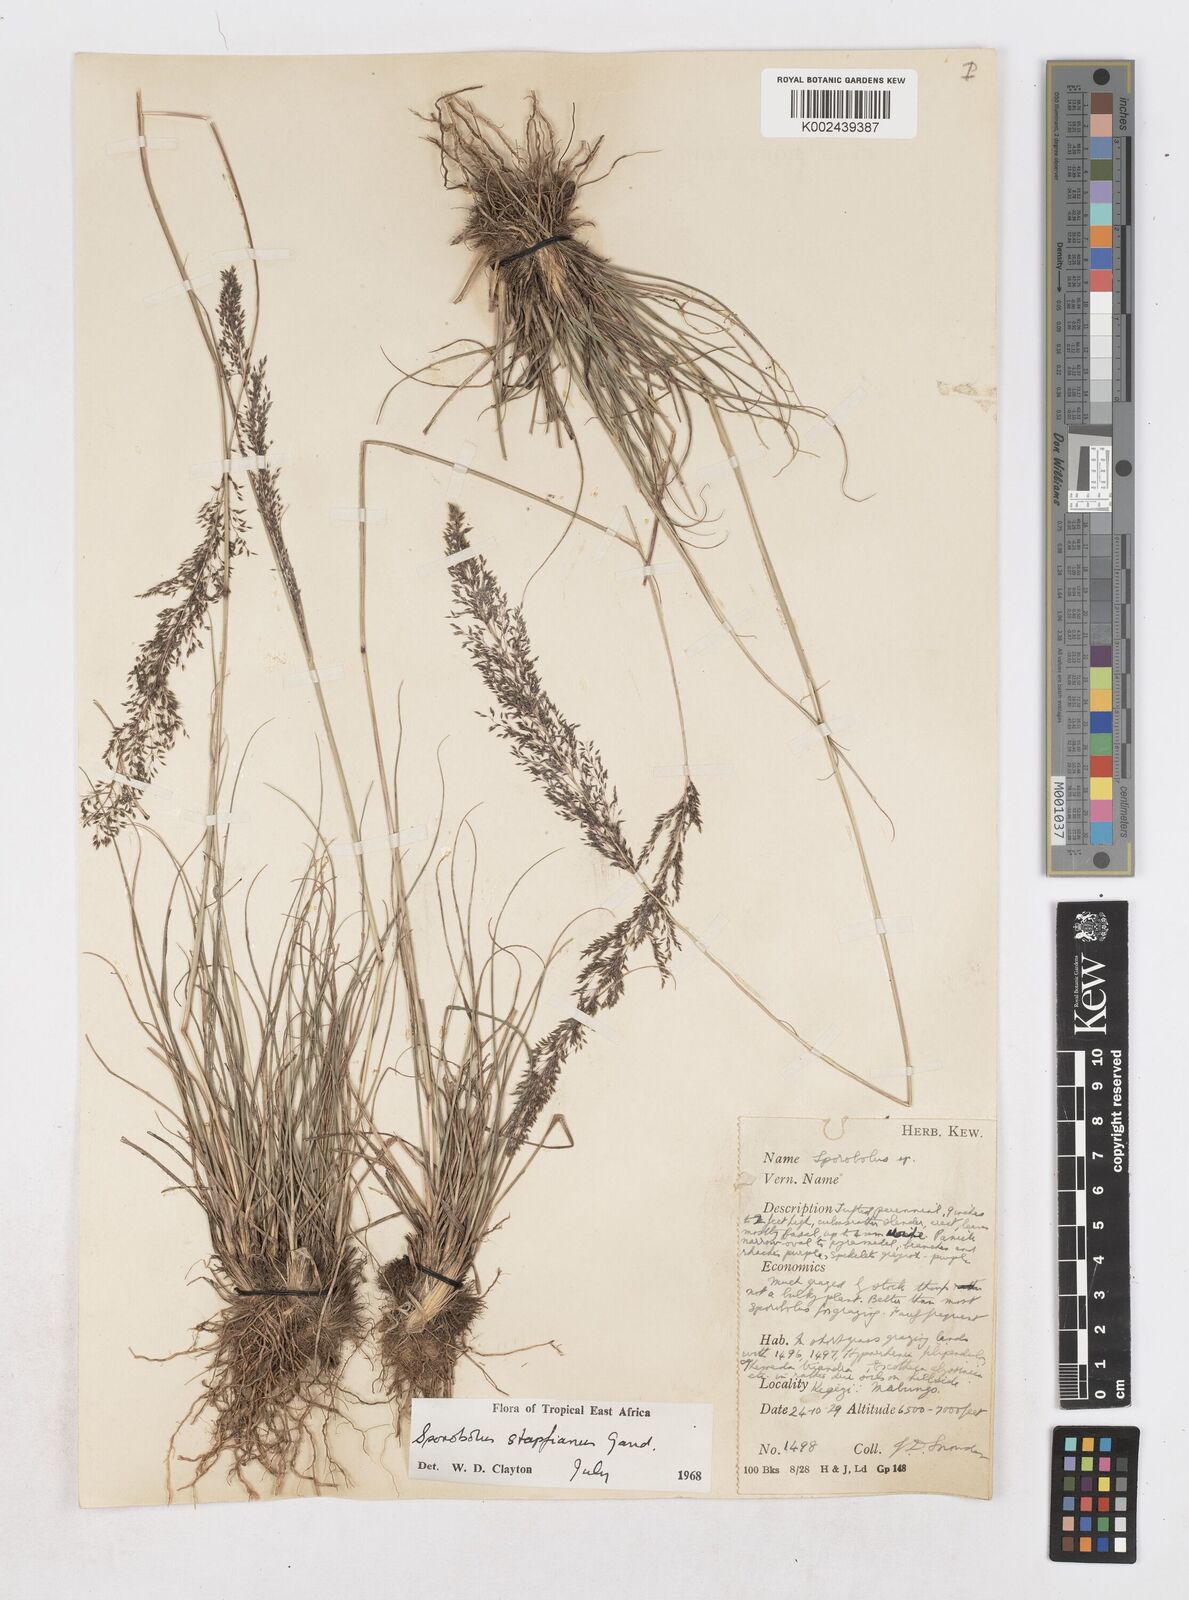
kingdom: Plantae
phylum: Tracheophyta
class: Liliopsida
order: Poales
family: Poaceae
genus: Sporobolus
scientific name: Sporobolus stapfianus
